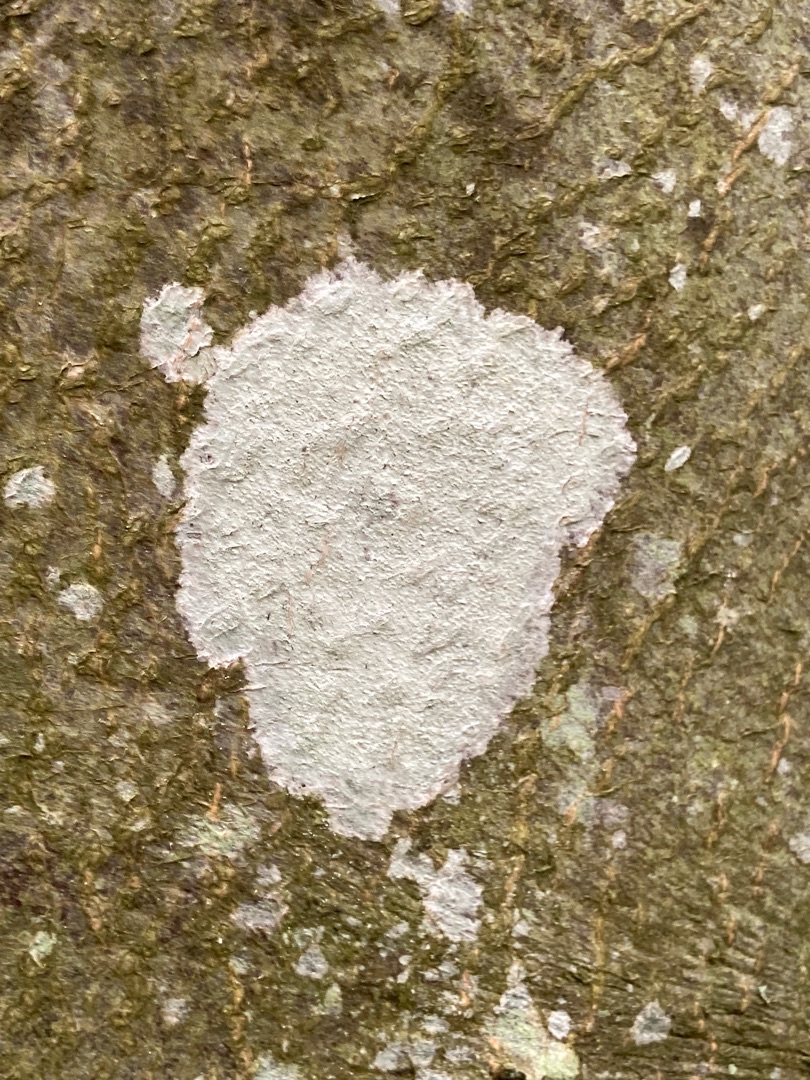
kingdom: Fungi
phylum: Ascomycota
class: Lecanoromycetes
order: Ostropales
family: Phlyctidaceae
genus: Phlyctis
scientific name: Phlyctis argena
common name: Almindelig sølvlav
